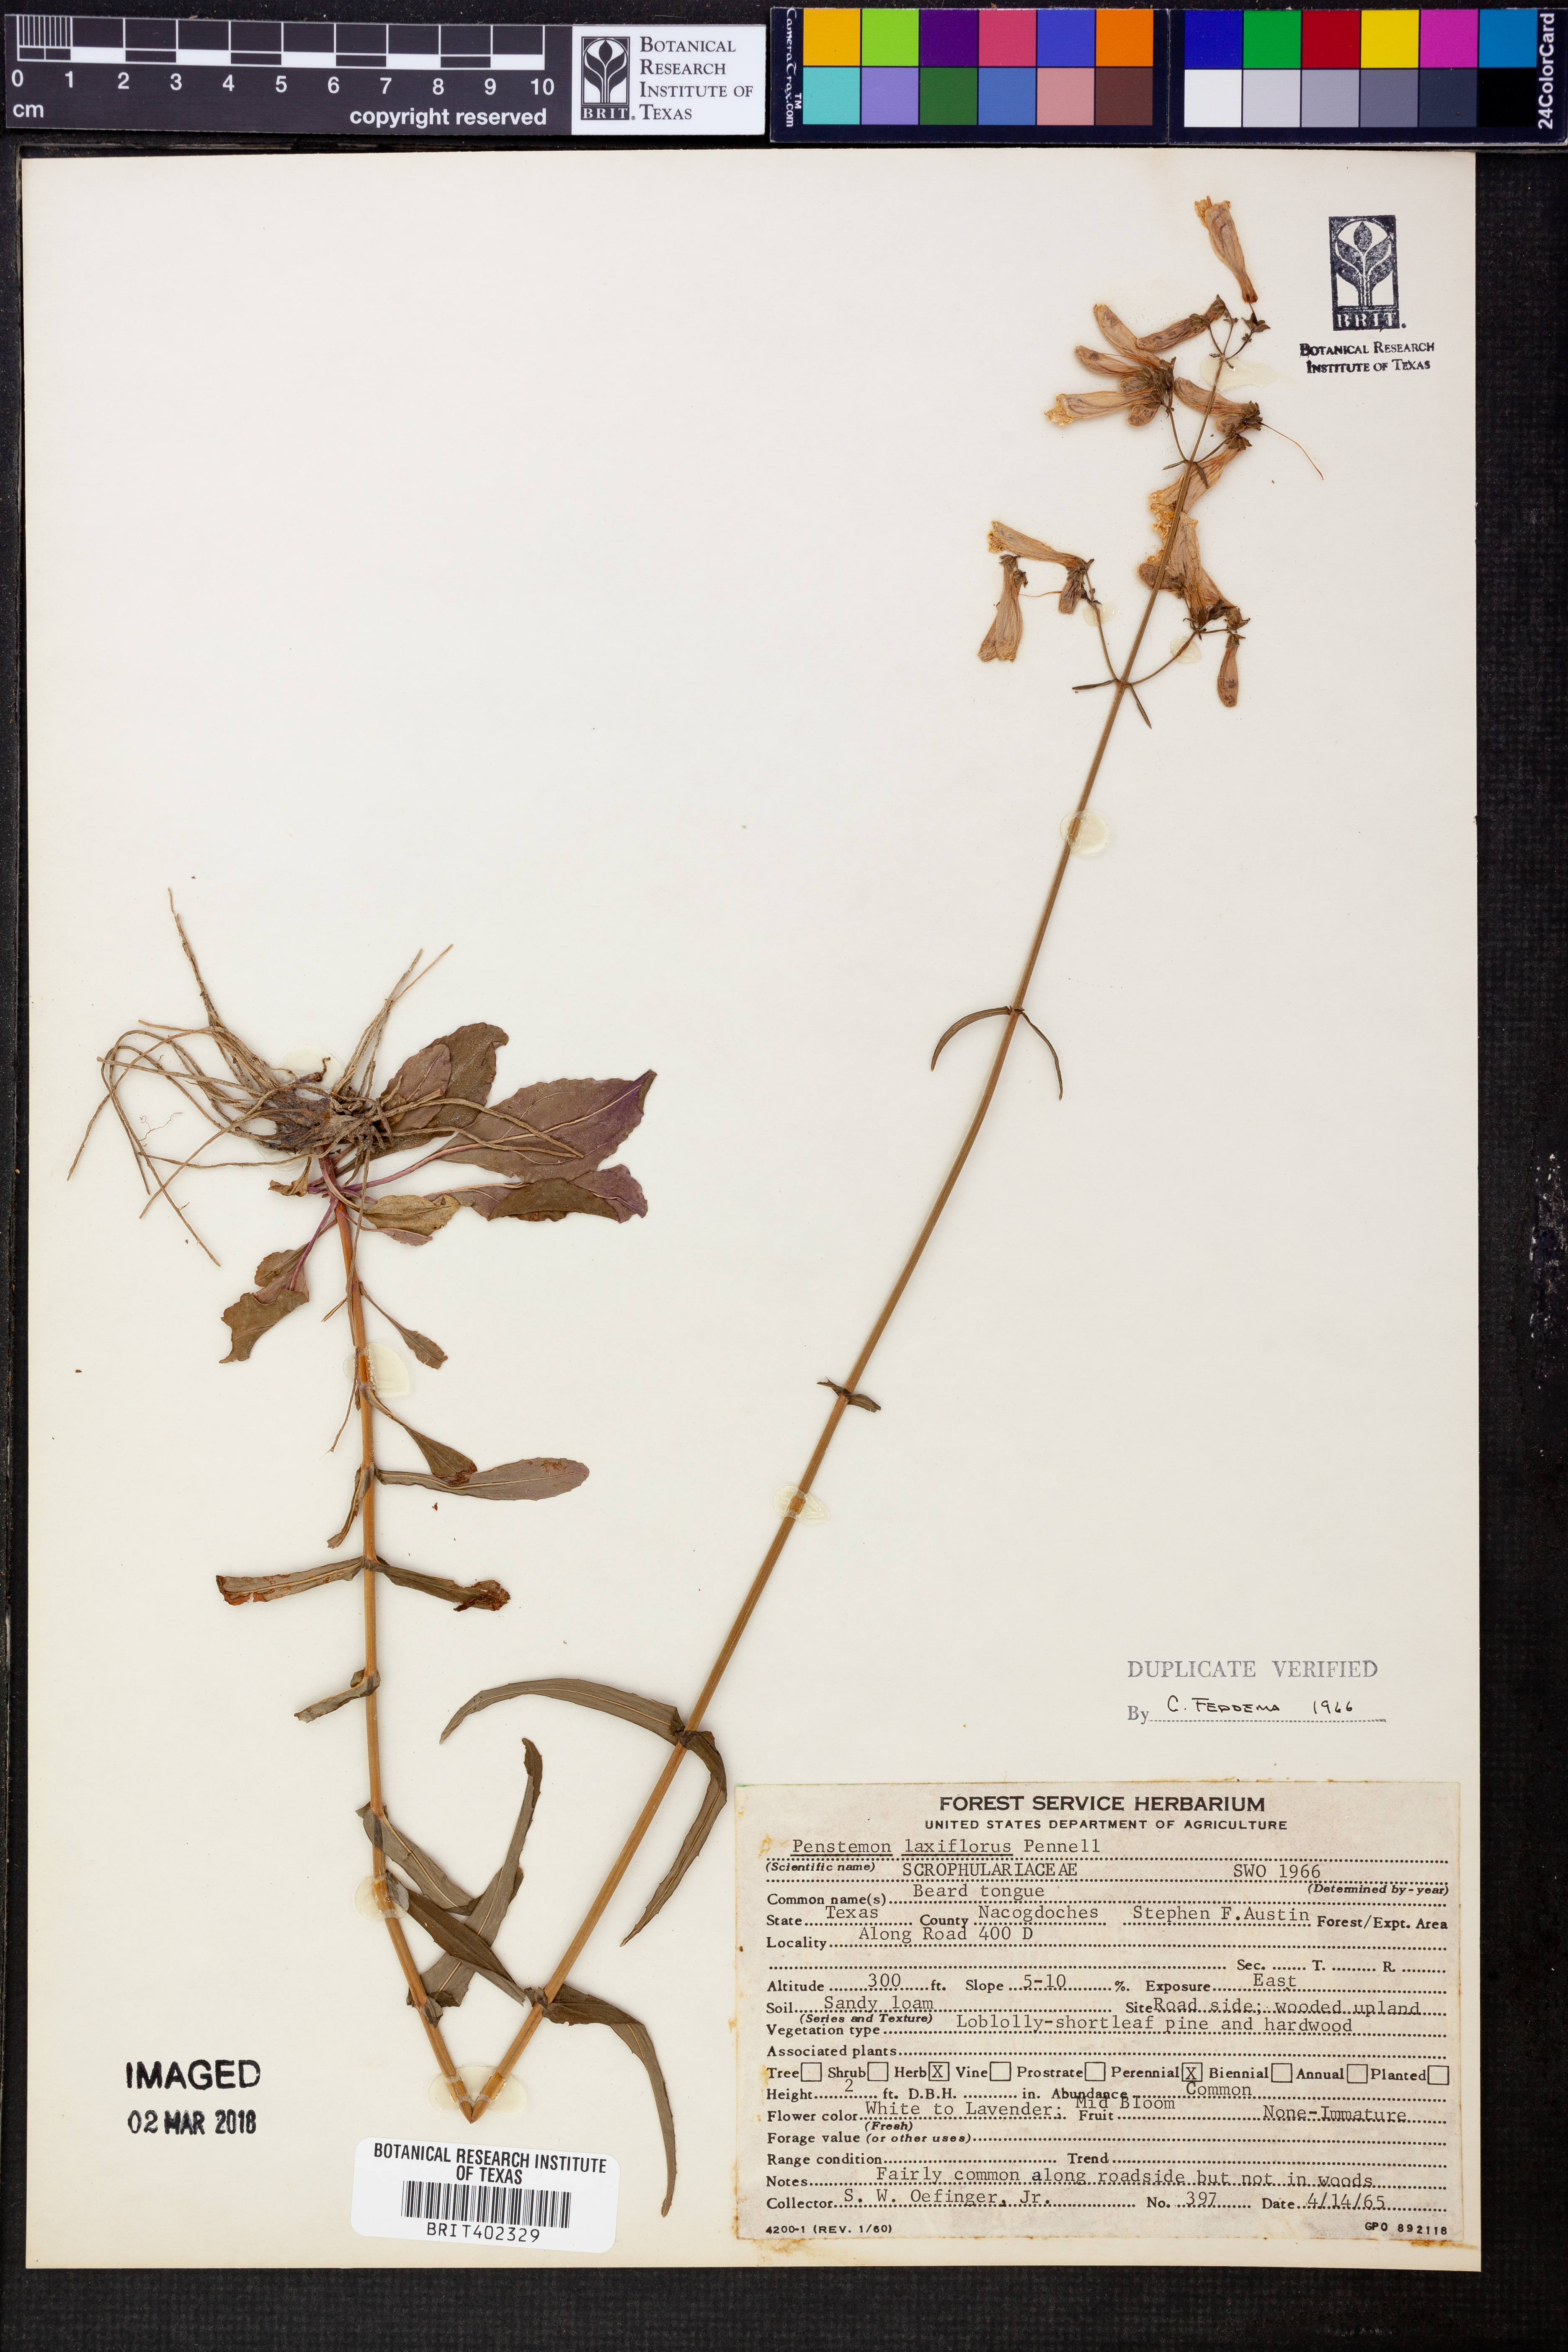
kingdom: Plantae
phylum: Tracheophyta
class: Magnoliopsida
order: Lamiales
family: Plantaginaceae
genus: Penstemon
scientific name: Penstemon laxiflorus
